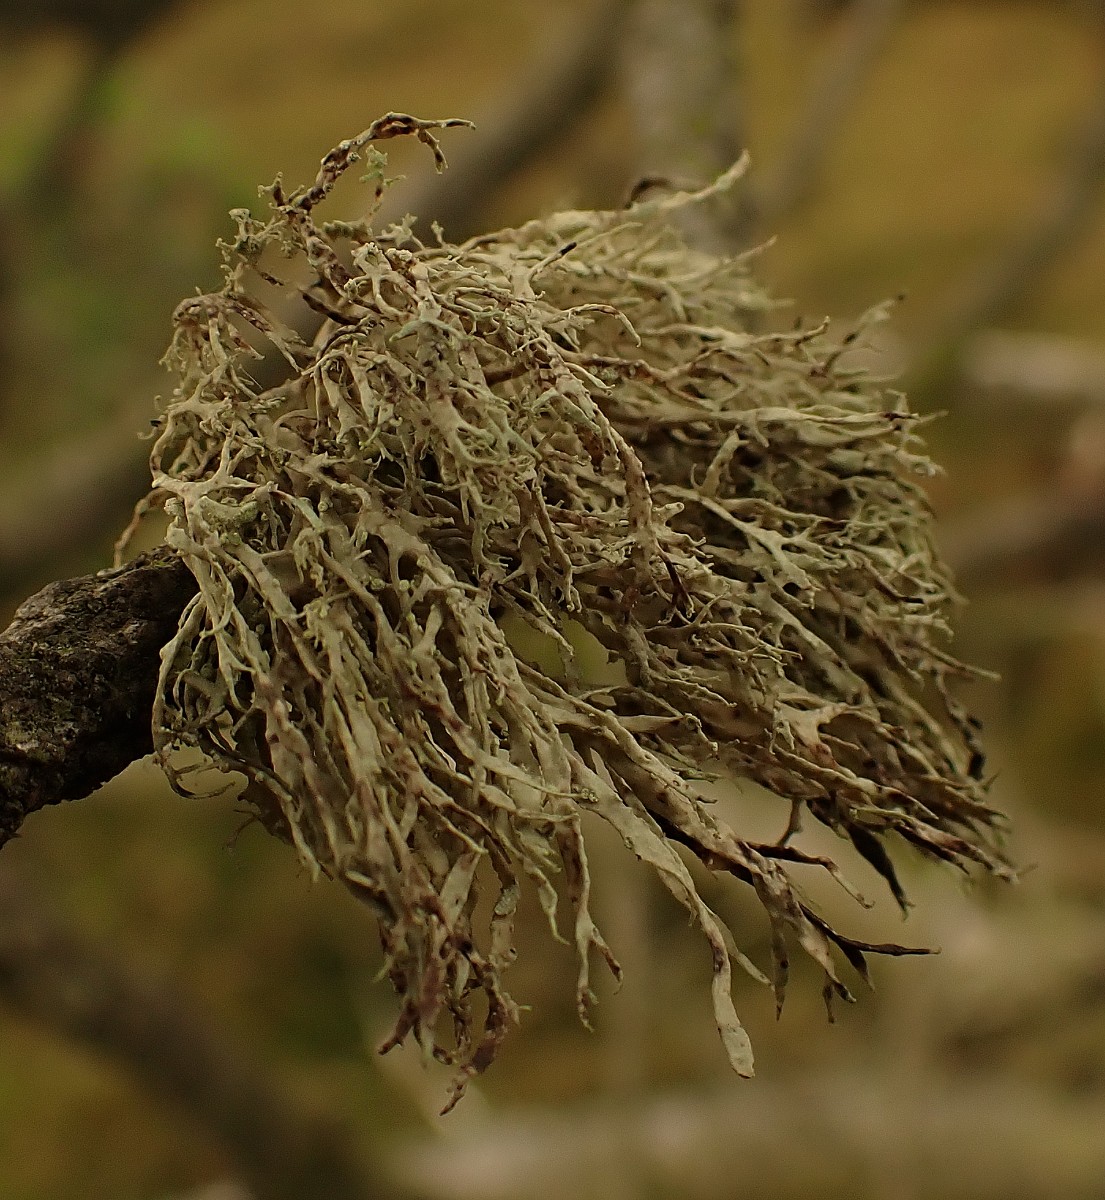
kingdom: Fungi
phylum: Ascomycota
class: Lecanoromycetes
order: Lecanorales
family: Ramalinaceae
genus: Ramalina
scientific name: Ramalina farinacea
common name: melet grenlav
